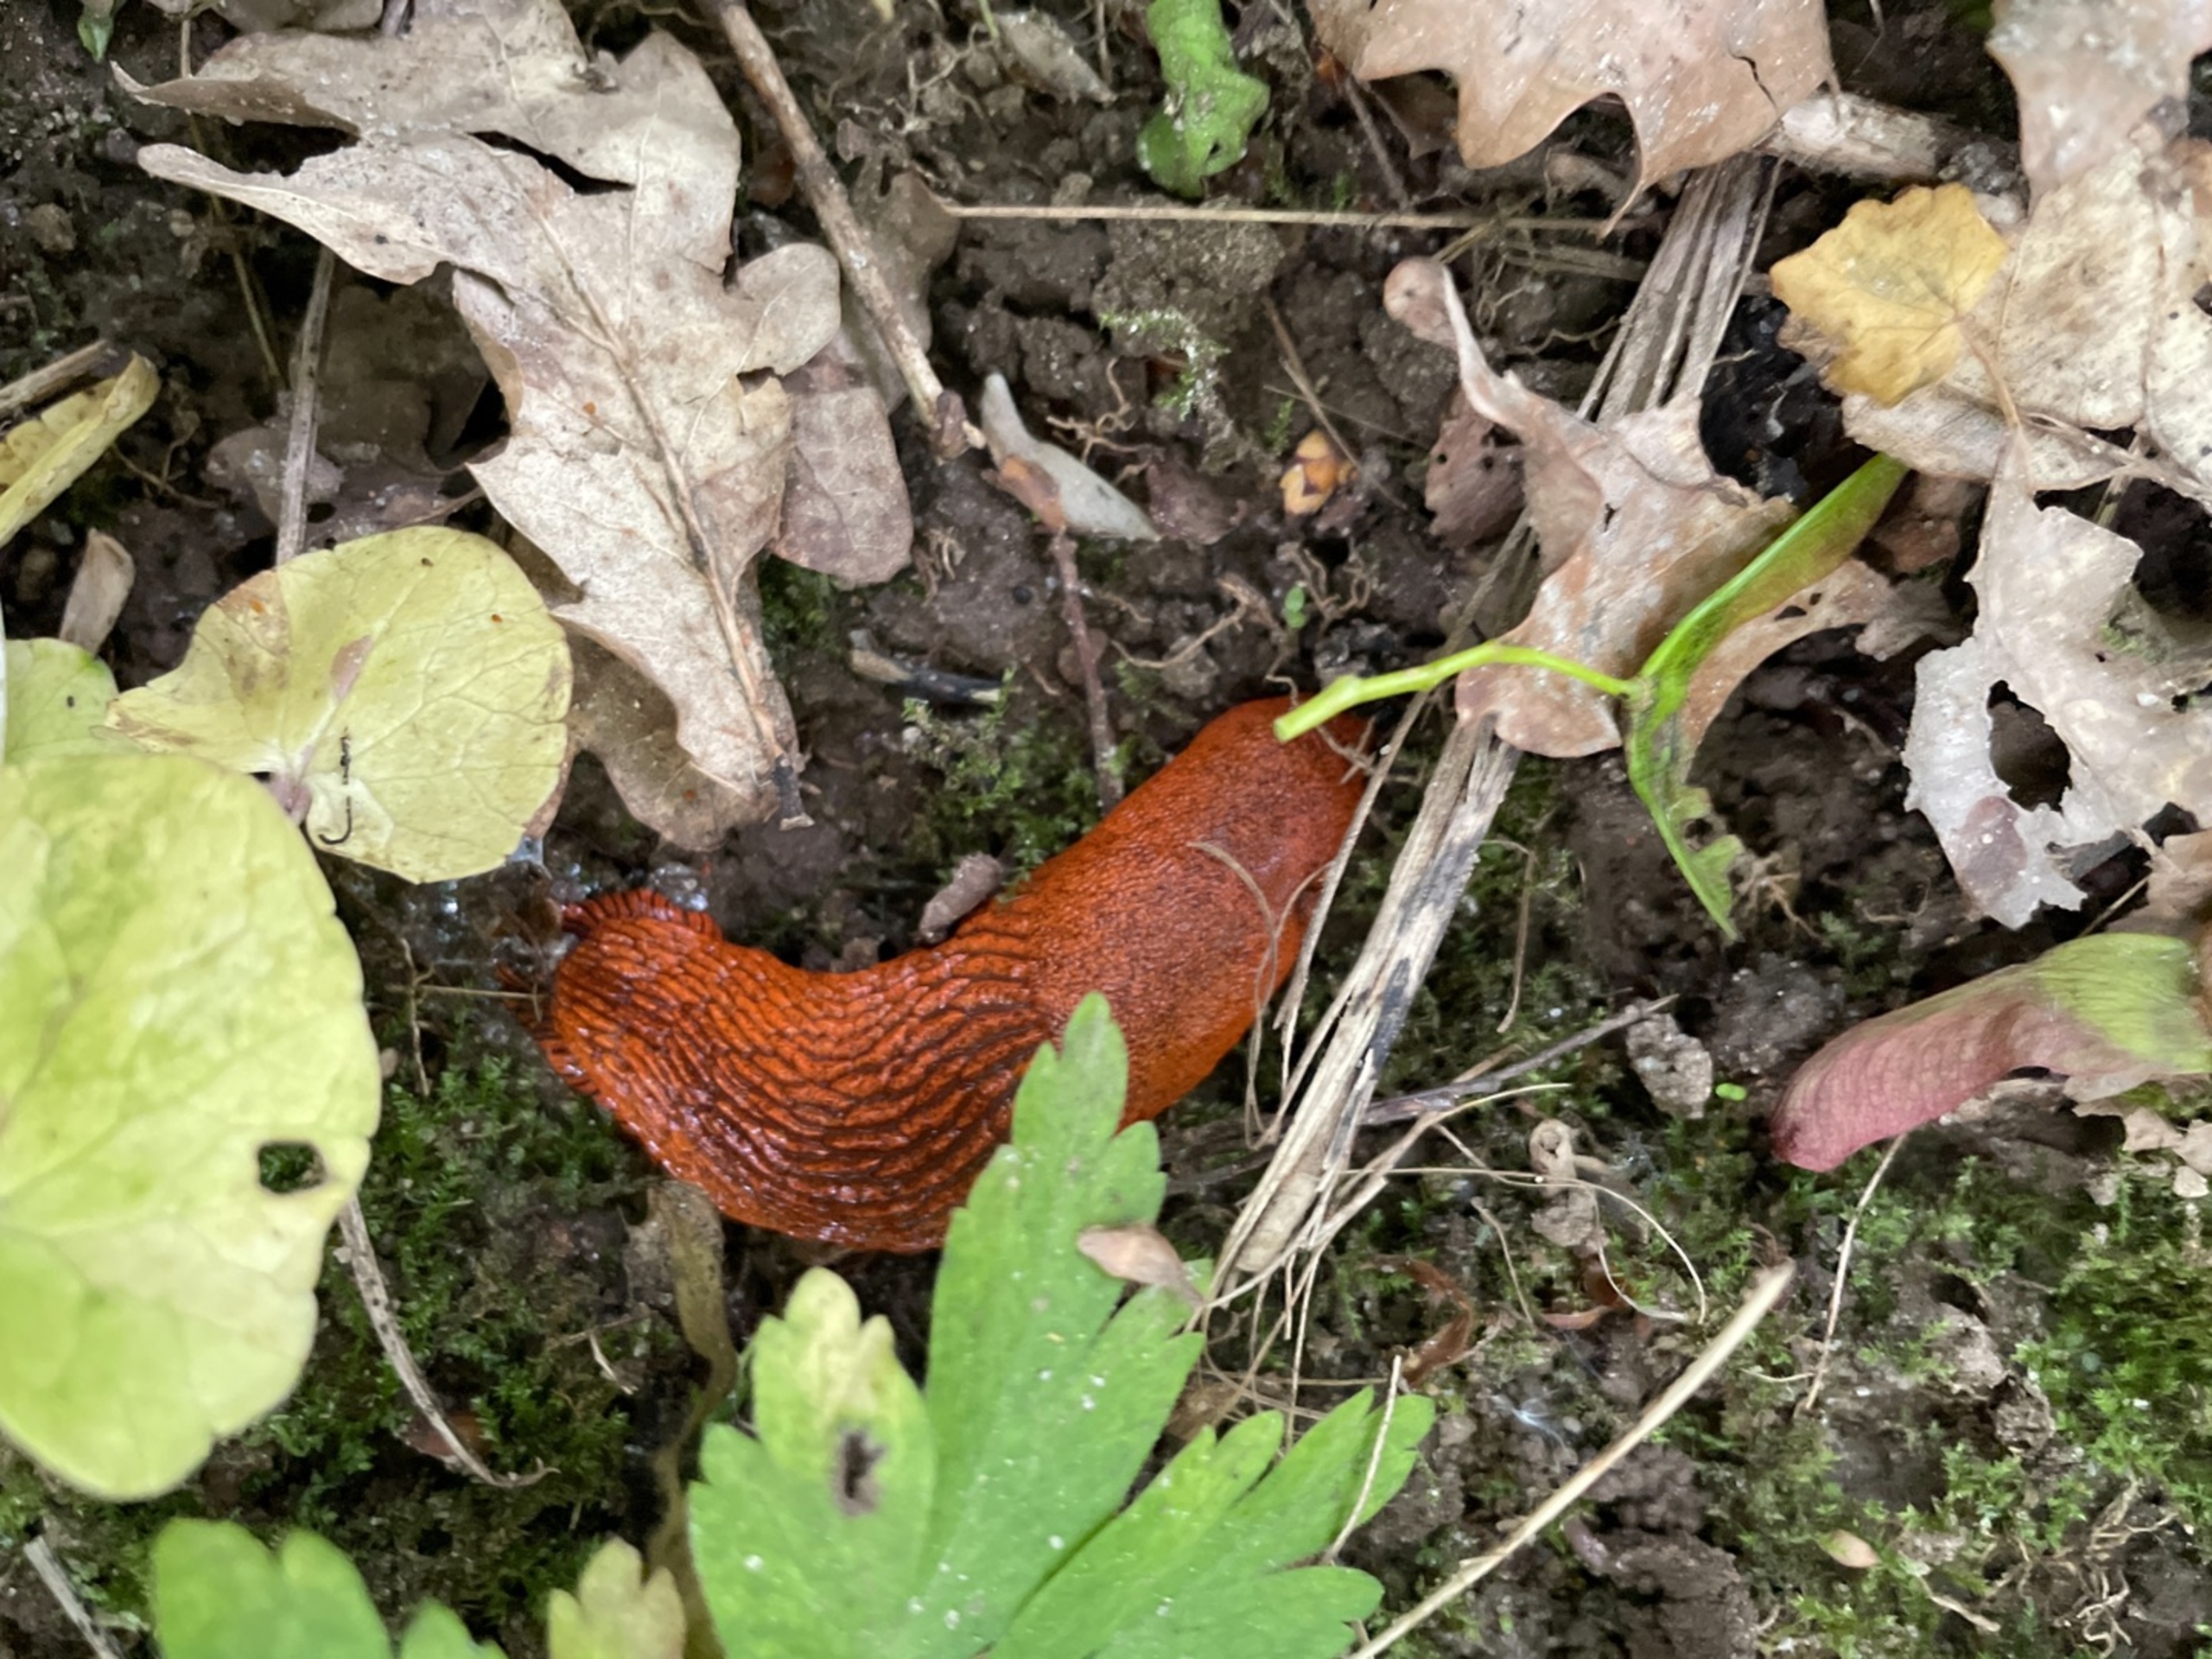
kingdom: Animalia
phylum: Mollusca
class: Gastropoda
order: Stylommatophora
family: Arionidae
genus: Arion
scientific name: Arion rufus
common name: Rød skovsnegl
